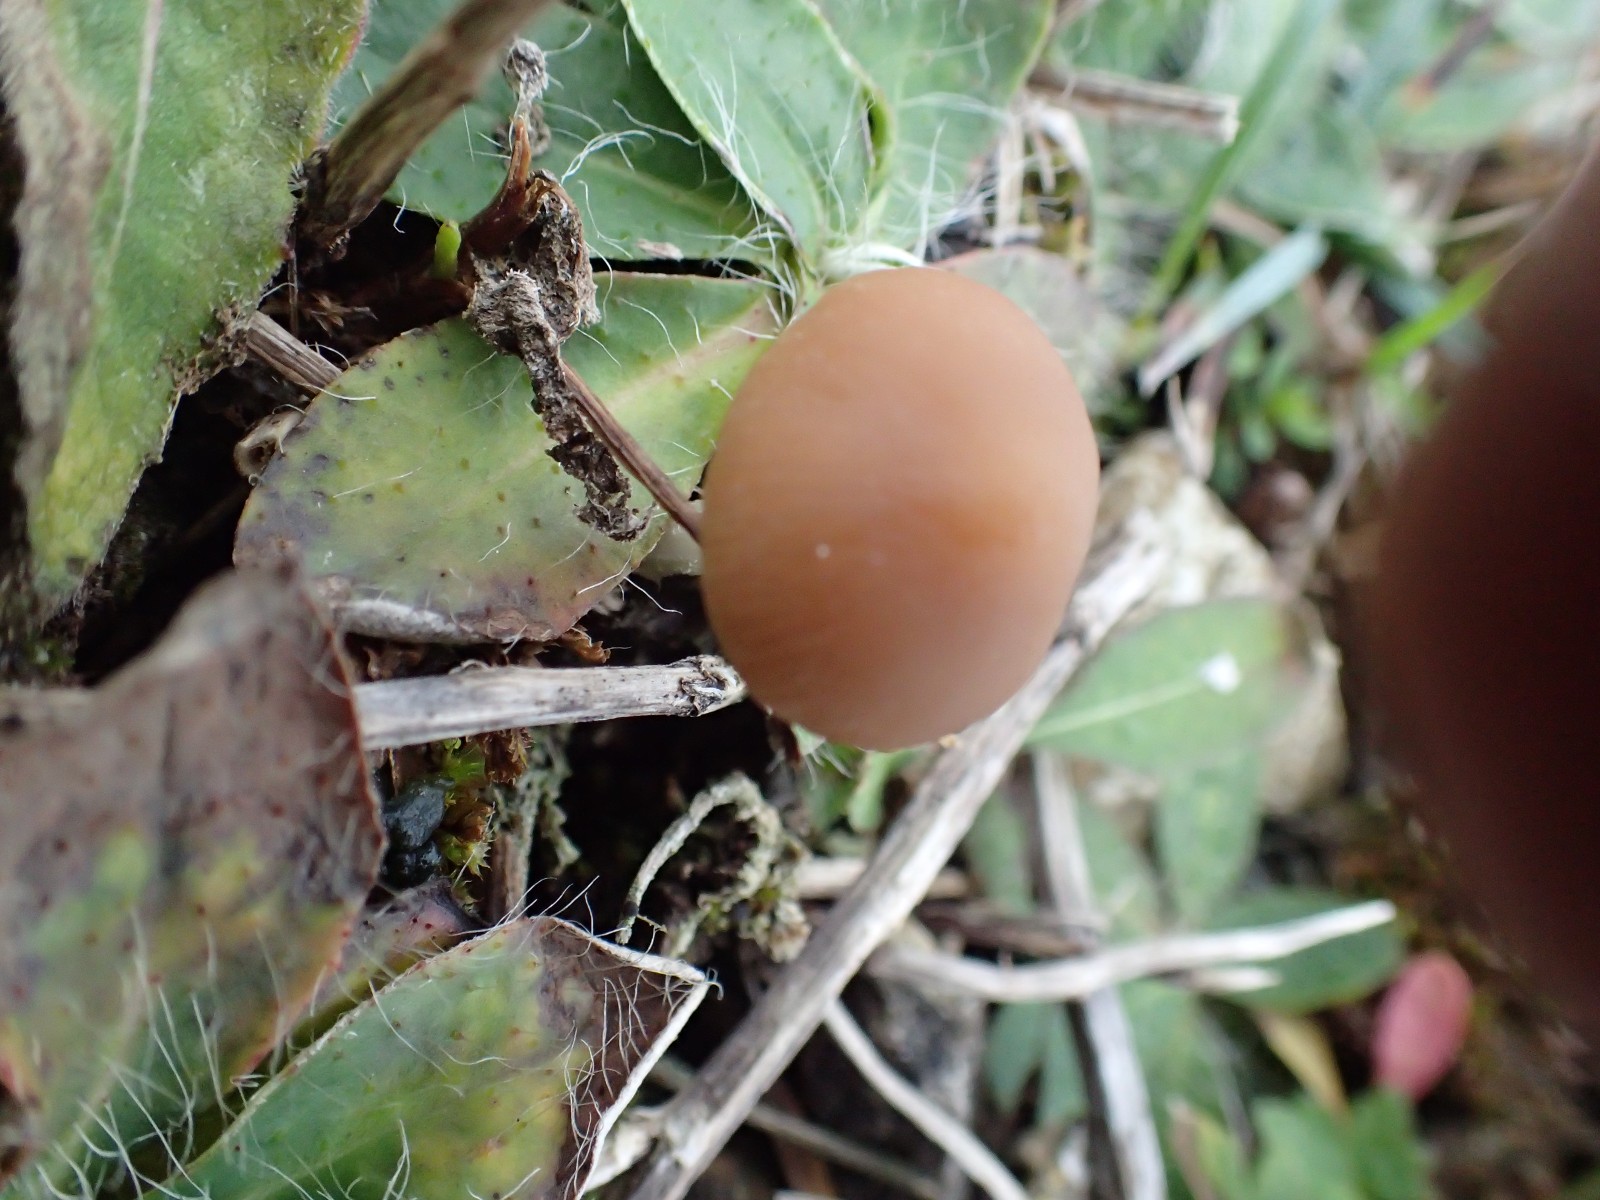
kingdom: Fungi
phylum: Basidiomycota
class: Agaricomycetes
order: Agaricales
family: Psathyrellaceae
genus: Psathyrella
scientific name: Psathyrella
